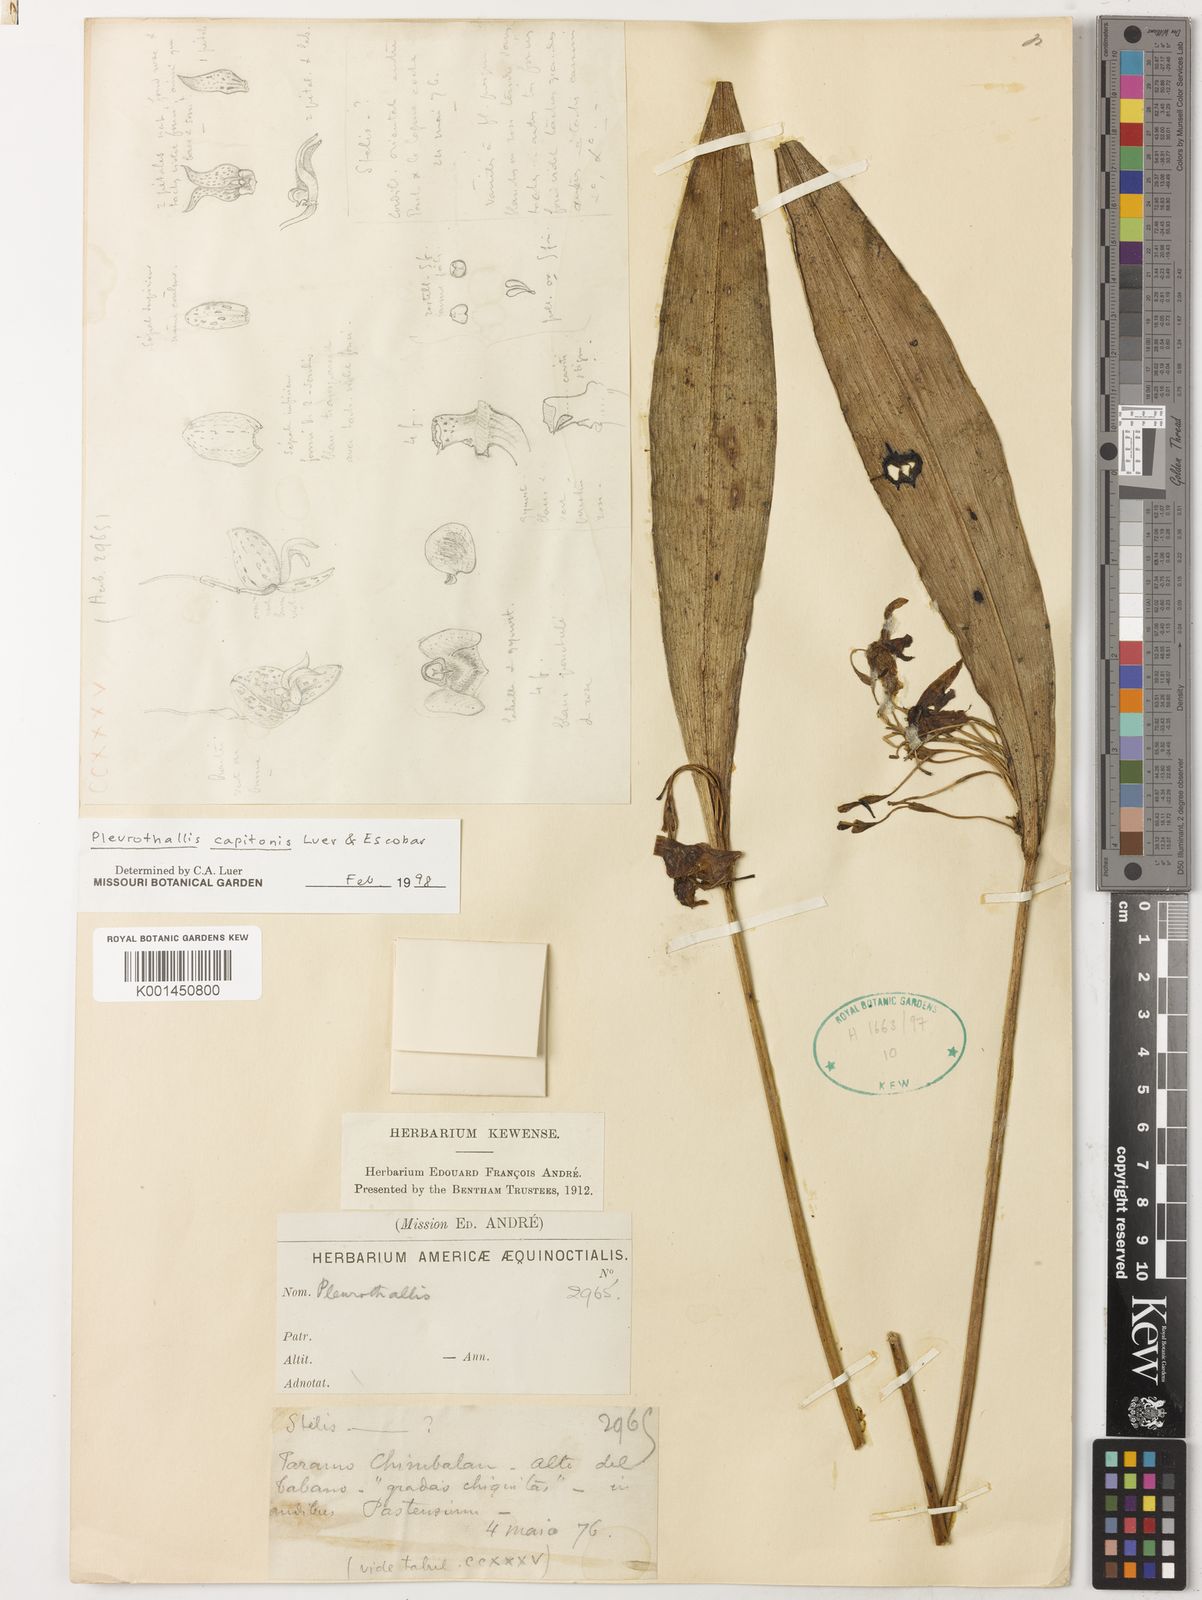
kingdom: Plantae
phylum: Tracheophyta
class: Liliopsida
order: Asparagales
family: Orchidaceae
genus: Pleurothallis
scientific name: Pleurothallis capitonis
